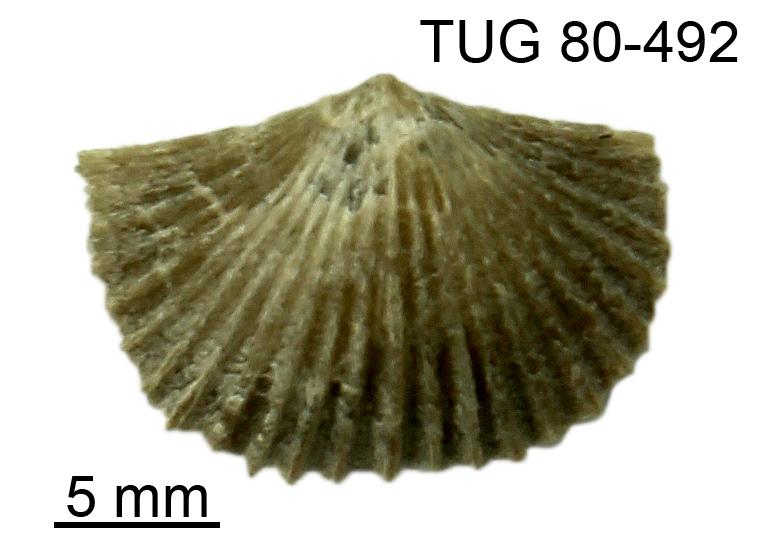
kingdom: Animalia
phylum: Brachiopoda
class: Rhynchonellata
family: Atrypidae
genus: Plectatrypa
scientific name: Plectatrypa
